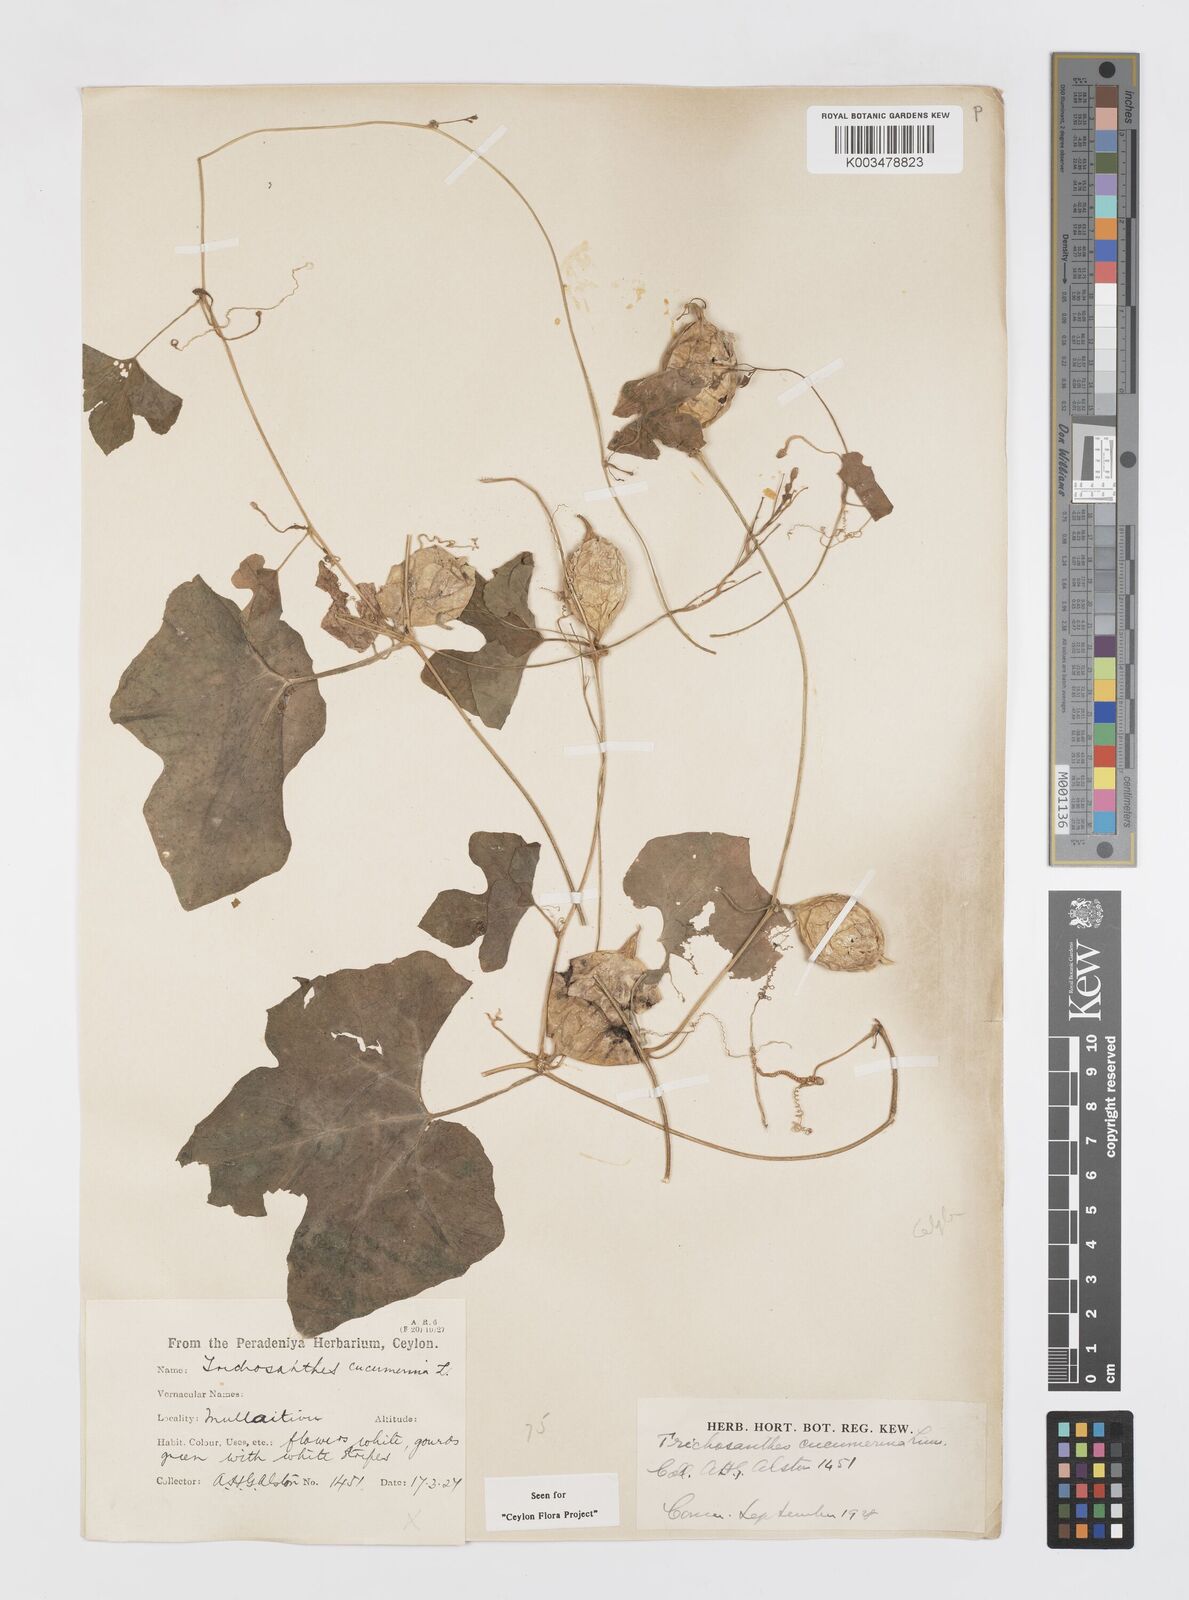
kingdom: Plantae
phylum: Tracheophyta
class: Magnoliopsida
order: Cucurbitales
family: Cucurbitaceae
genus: Trichosanthes
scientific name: Trichosanthes cucumerina
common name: Snakegourd
